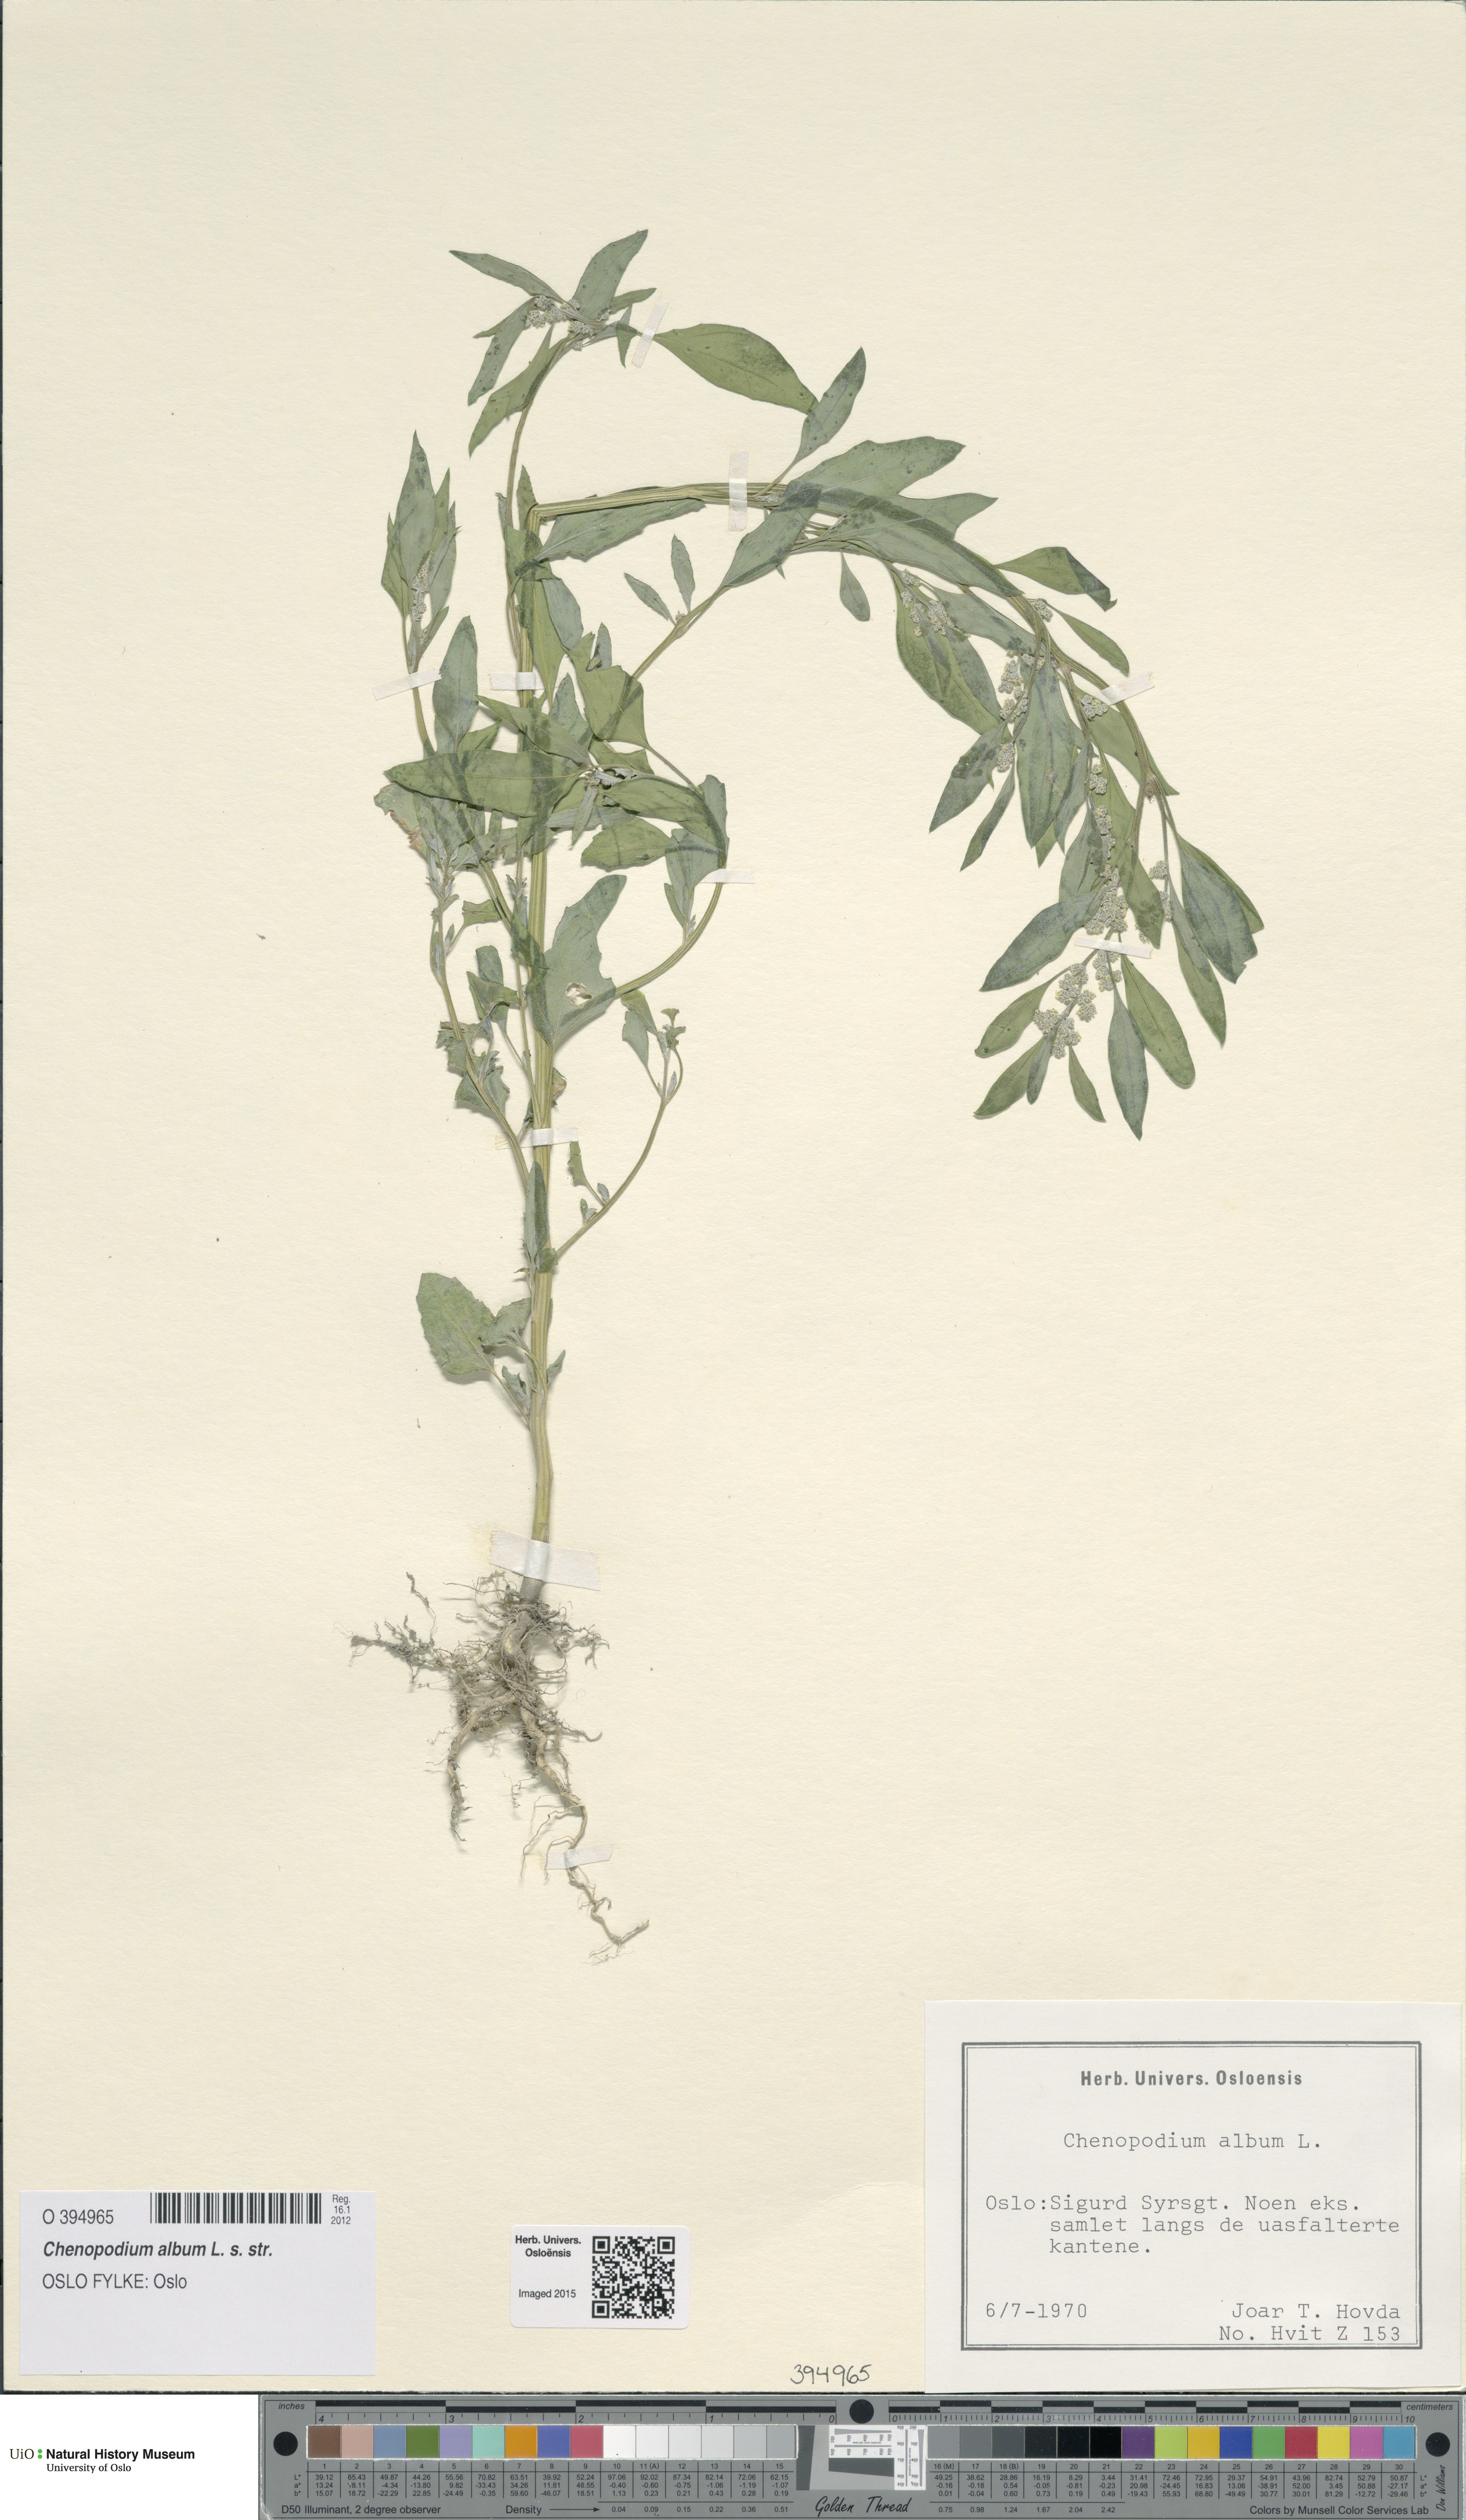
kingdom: Plantae
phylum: Tracheophyta
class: Magnoliopsida
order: Caryophyllales
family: Amaranthaceae
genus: Chenopodium
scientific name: Chenopodium album
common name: Fat-hen
